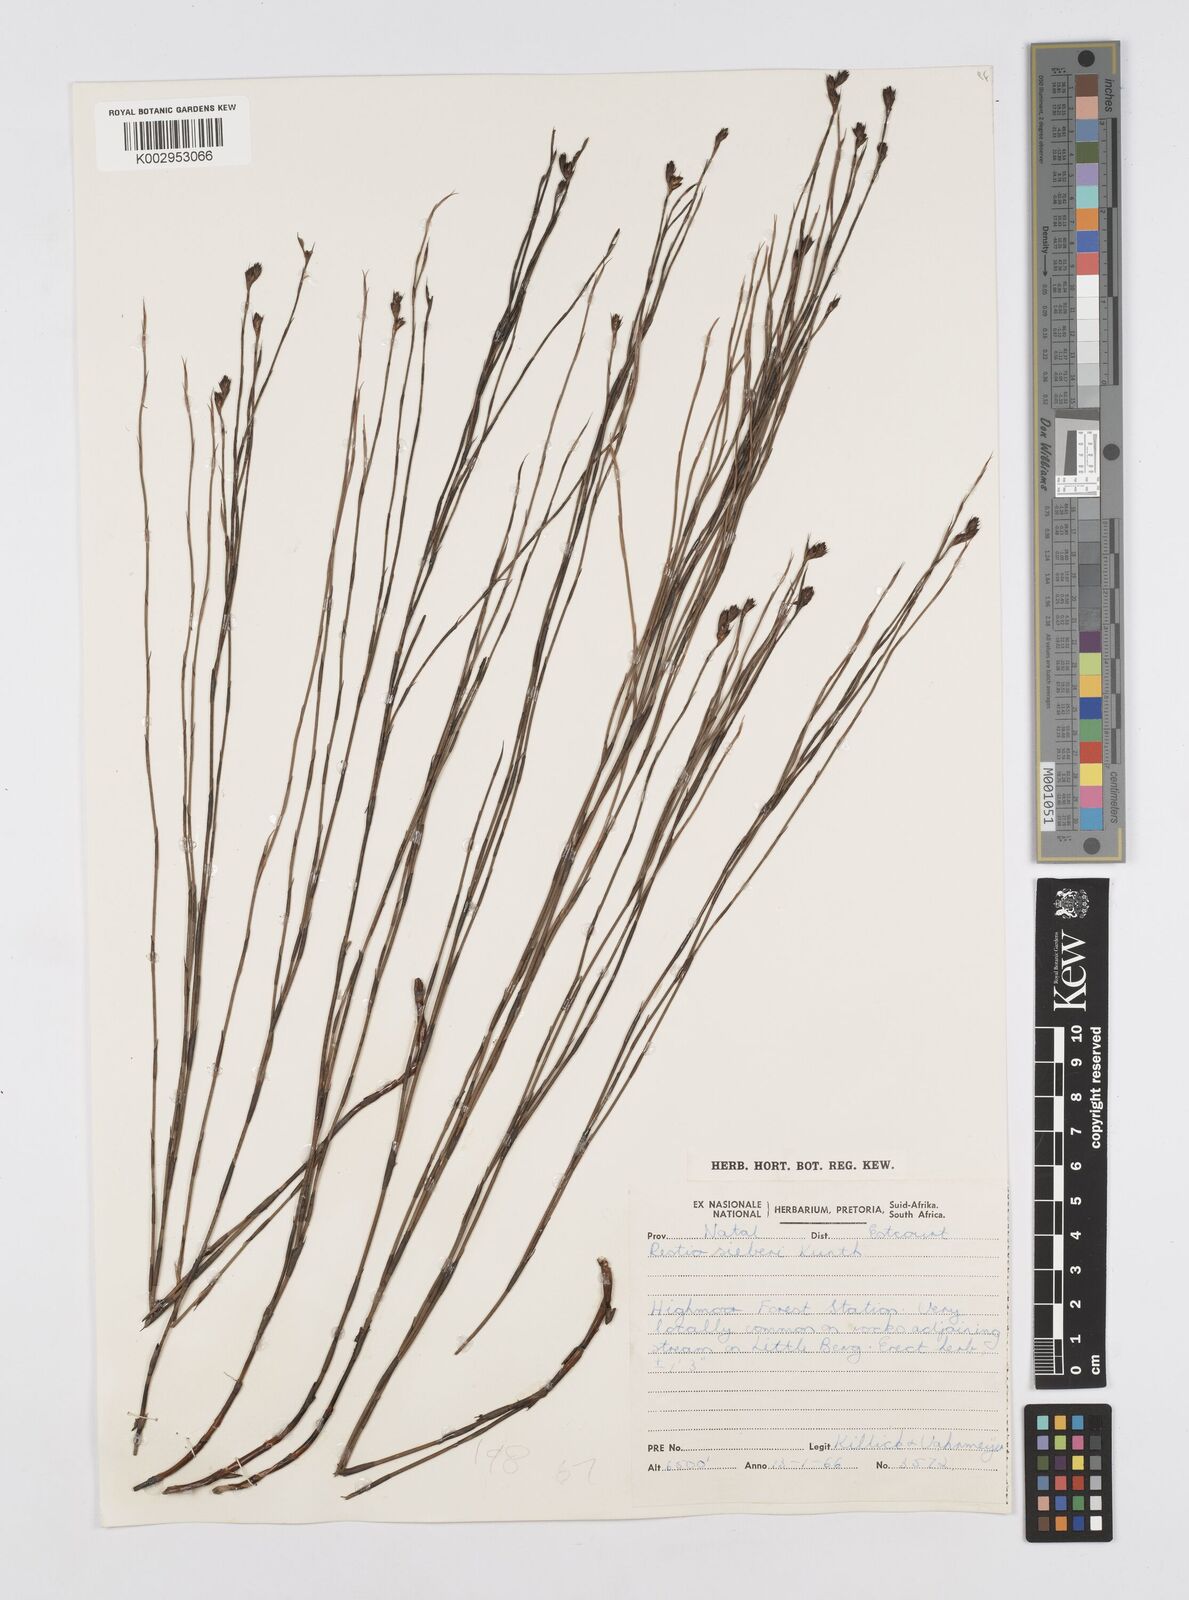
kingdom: Plantae
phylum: Tracheophyta
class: Liliopsida
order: Poales
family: Restionaceae
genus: Restio
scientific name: Restio sieberi
